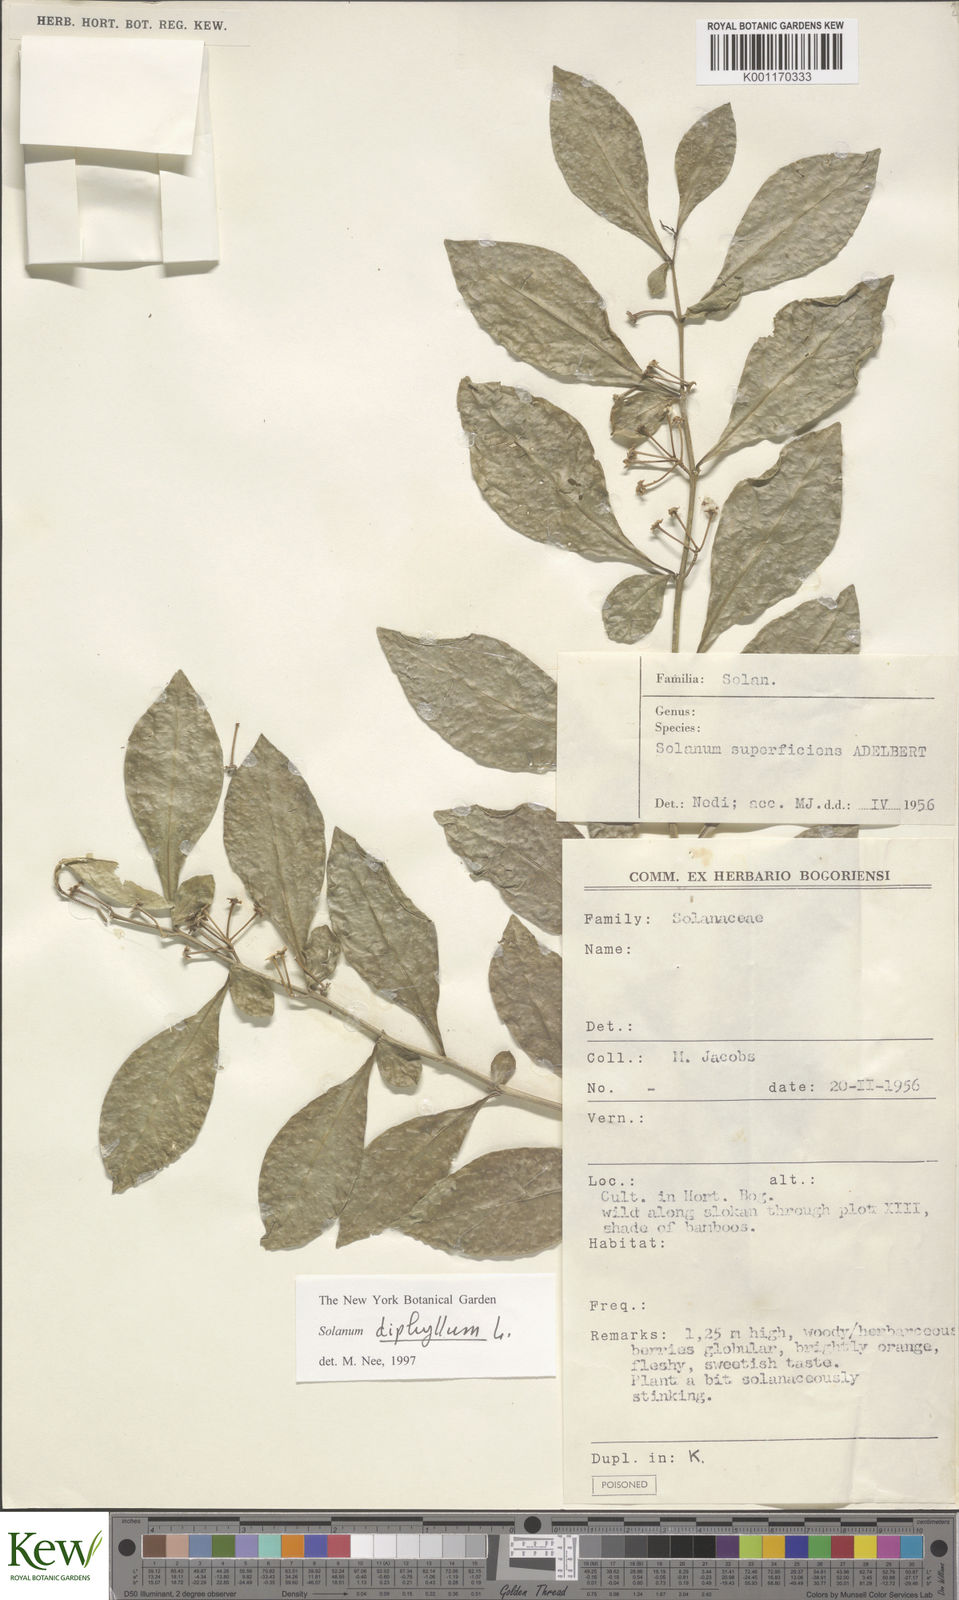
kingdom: Plantae
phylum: Tracheophyta
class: Magnoliopsida
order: Solanales
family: Solanaceae
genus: Solanum
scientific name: Solanum spirale
